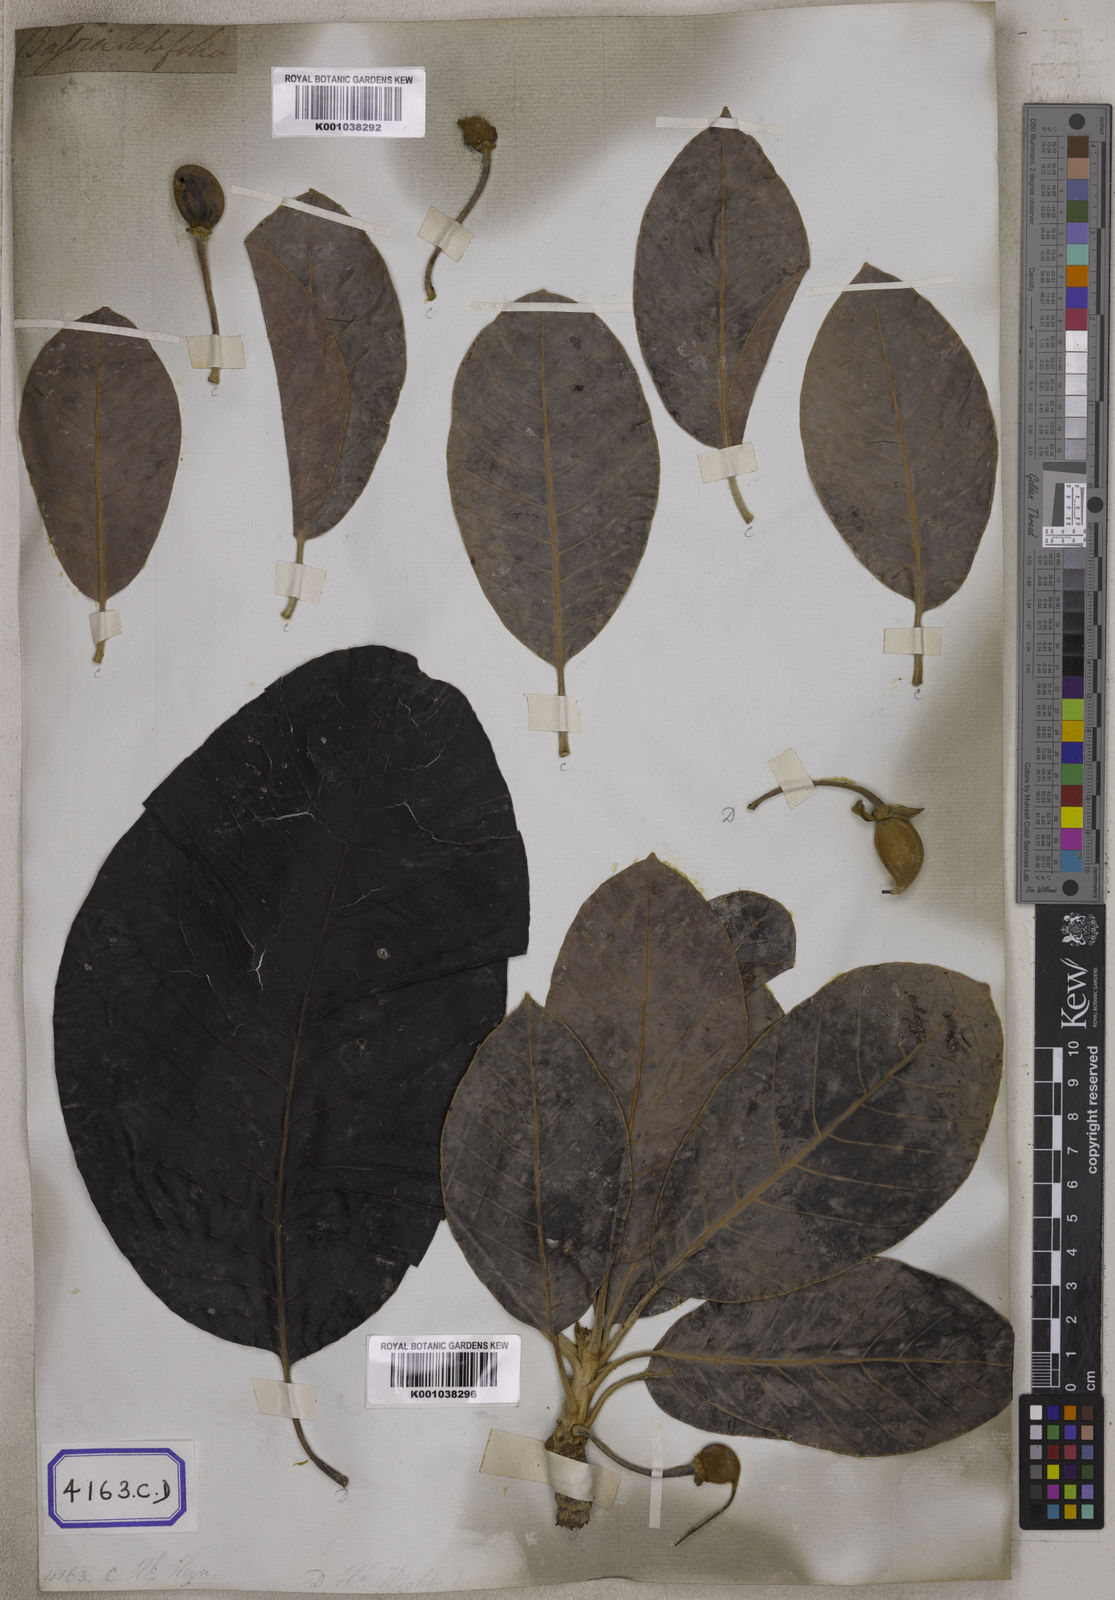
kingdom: Plantae
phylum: Tracheophyta
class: Magnoliopsida
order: Ericales
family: Sapotaceae
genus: Madhuca
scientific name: Madhuca longifolia
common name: Mowra-buttertree
